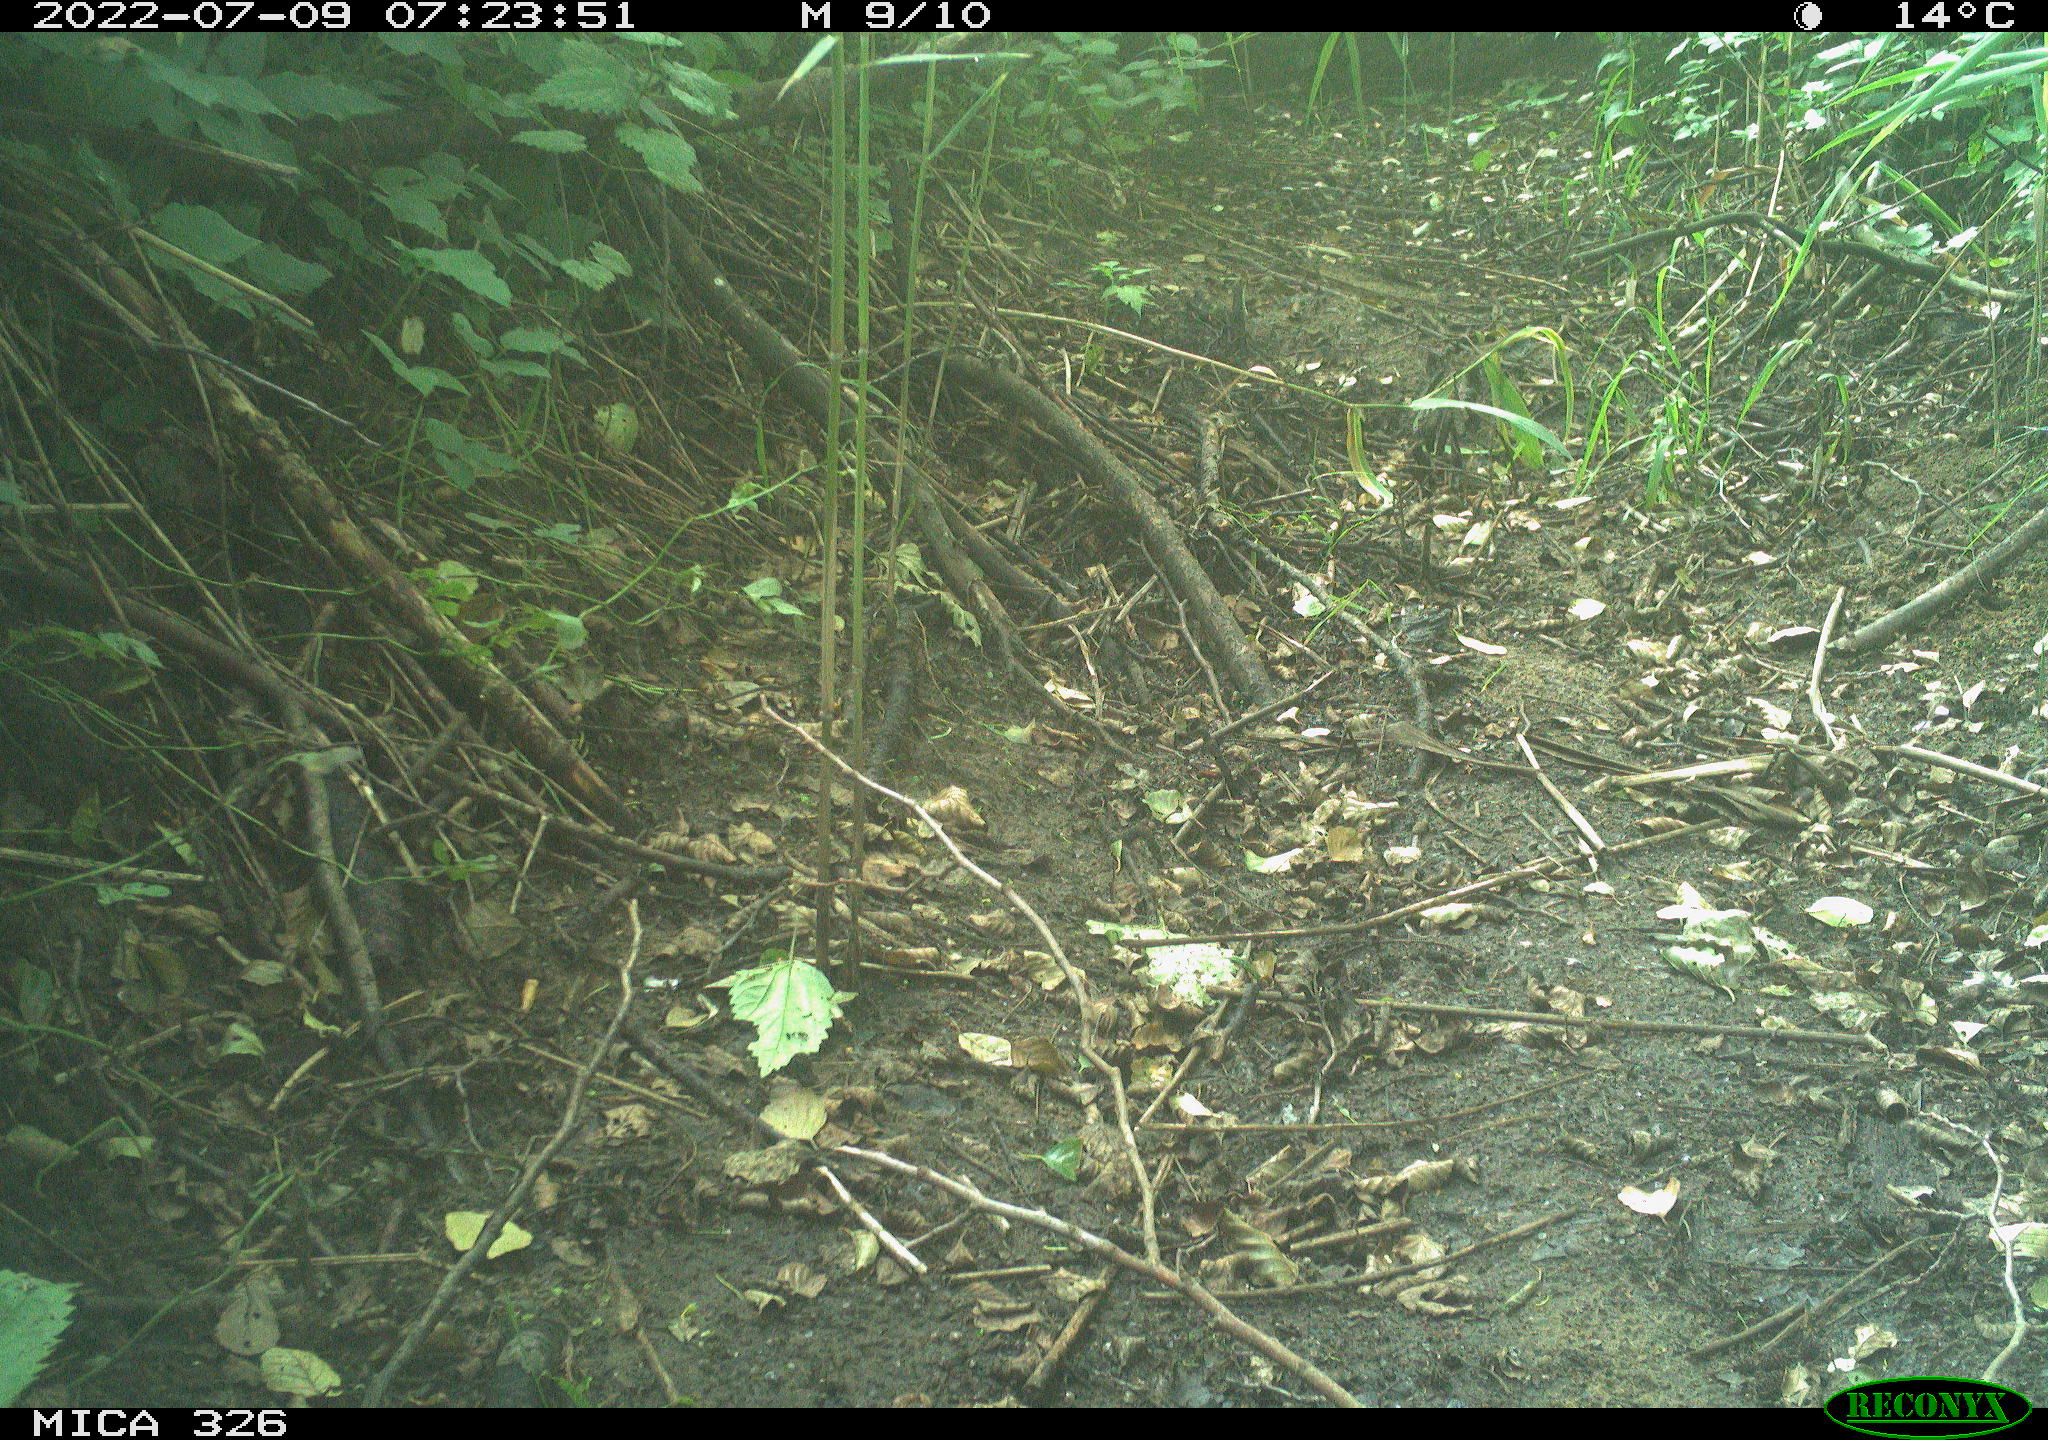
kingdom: Animalia
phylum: Chordata
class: Aves
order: Passeriformes
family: Turdidae
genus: Turdus
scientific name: Turdus philomelos
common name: Song thrush
